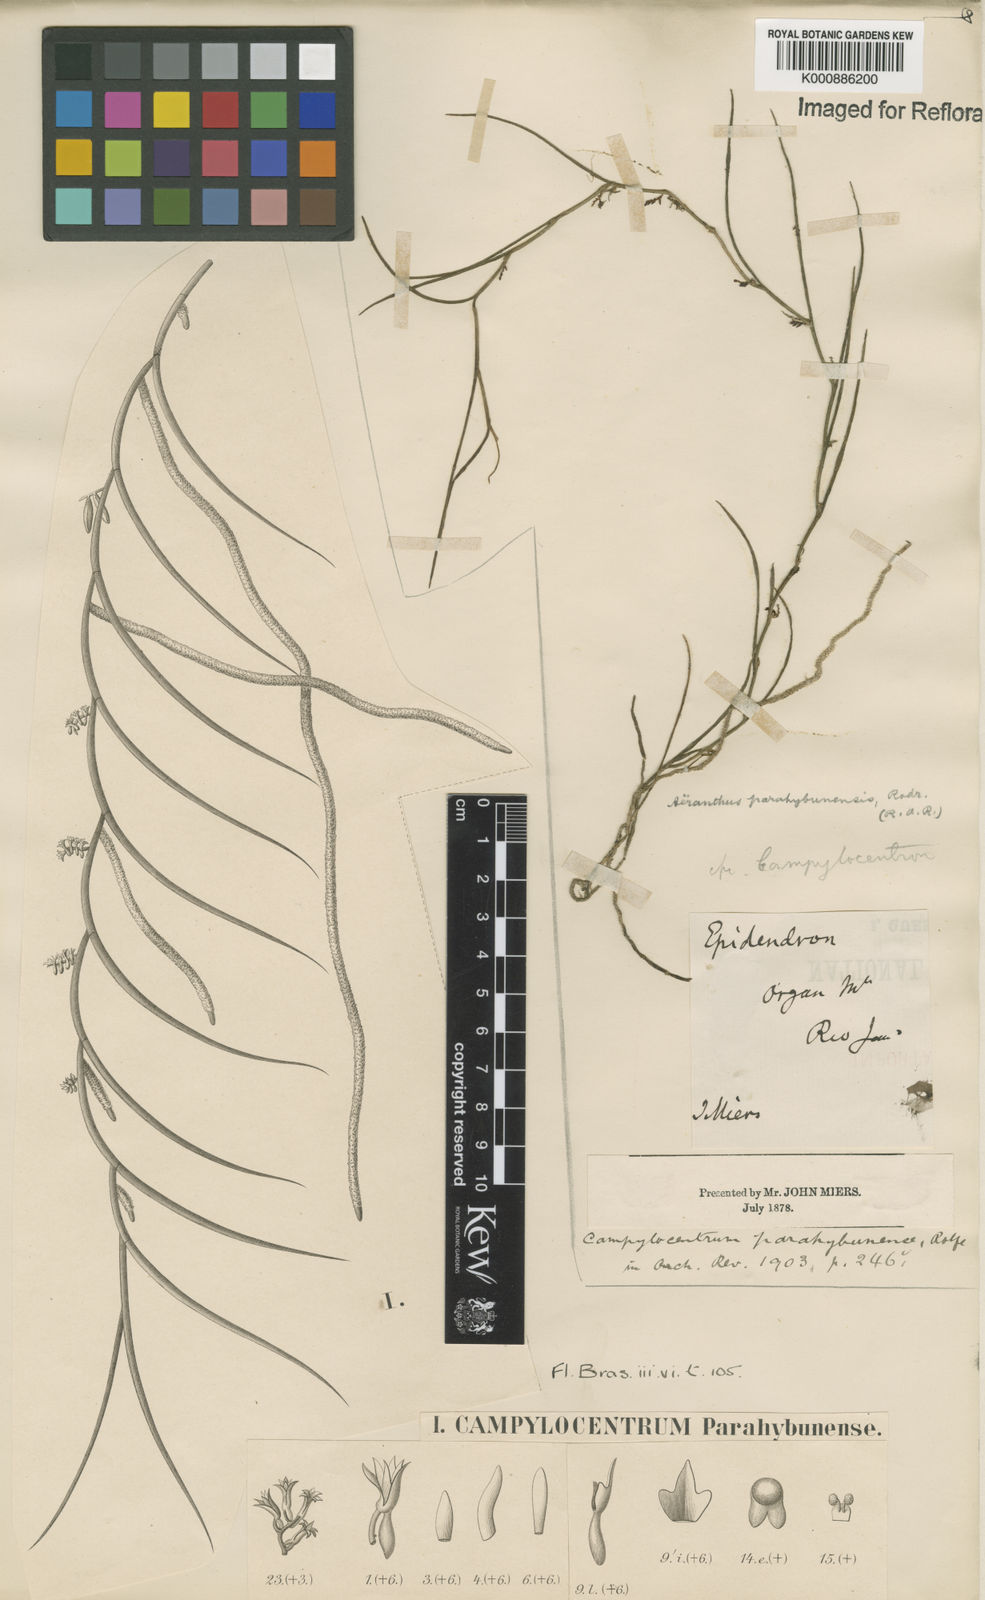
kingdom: Plantae
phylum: Tracheophyta
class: Liliopsida
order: Asparagales
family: Orchidaceae
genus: Campylocentrum
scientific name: Campylocentrum parahybunense
